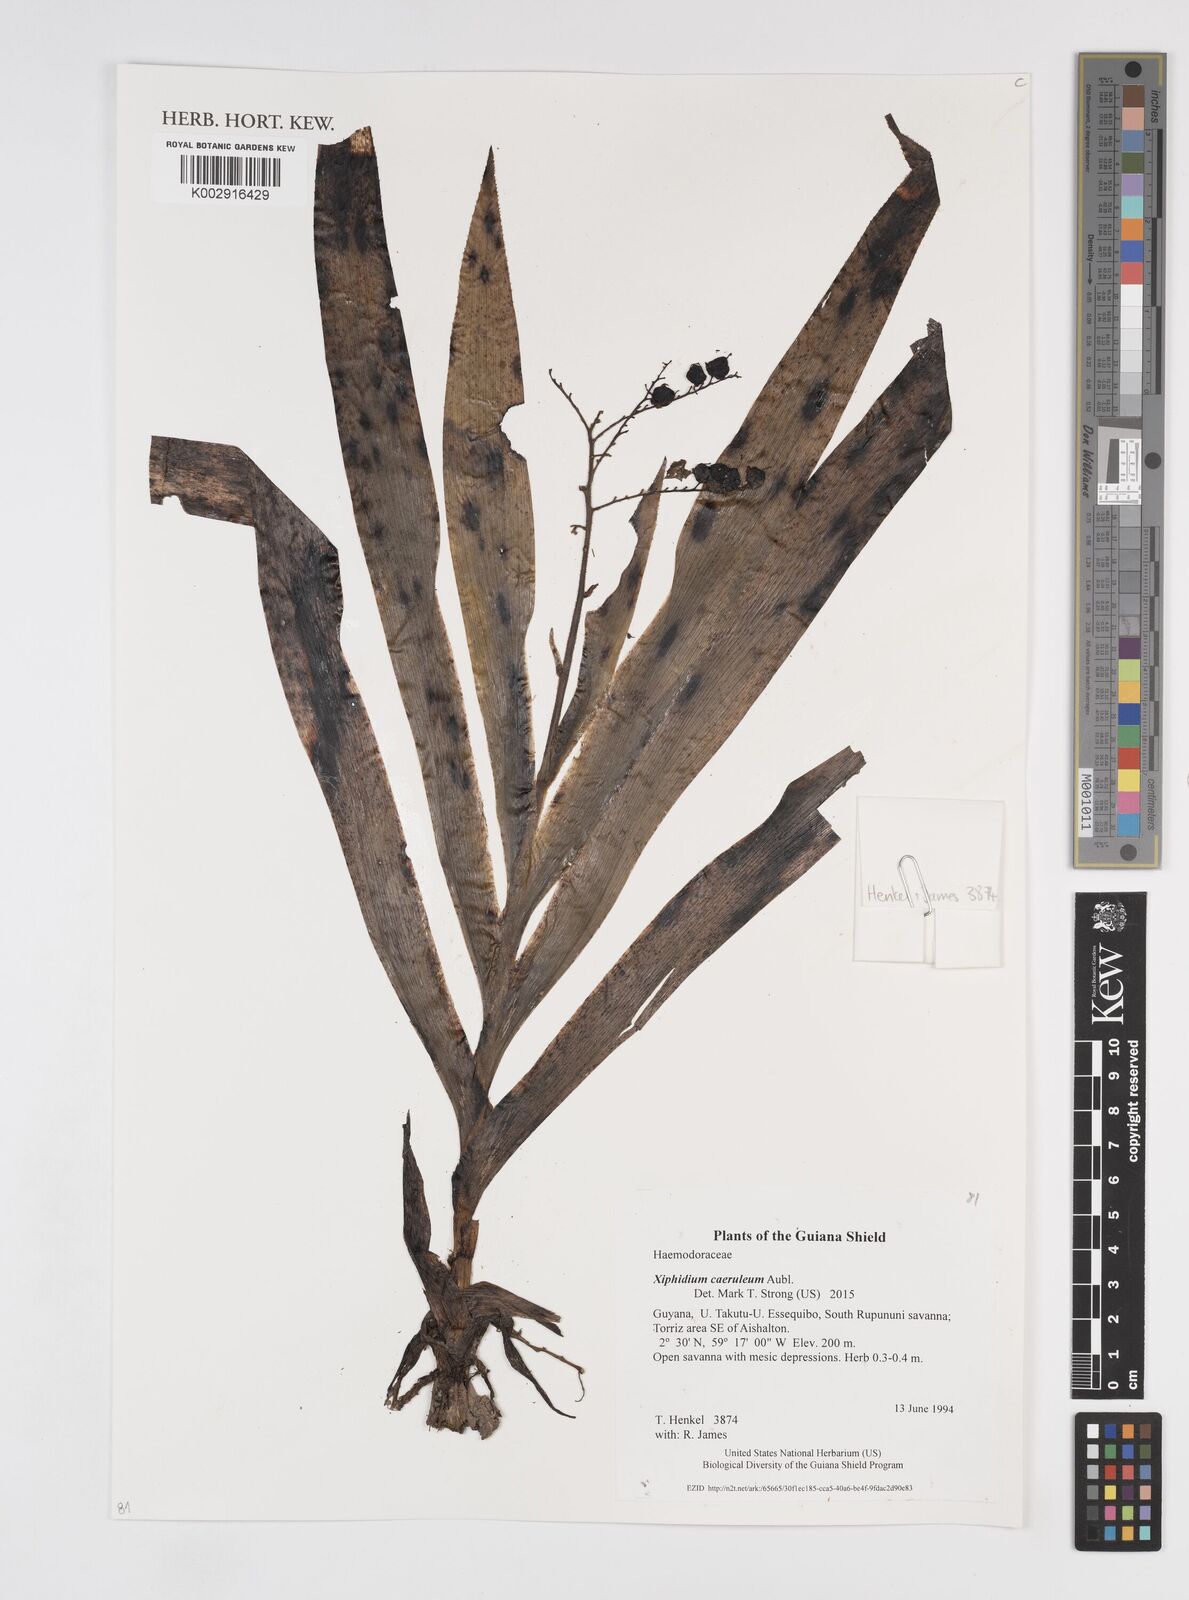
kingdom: Plantae
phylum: Tracheophyta
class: Liliopsida
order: Commelinales
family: Haemodoraceae
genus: Xiphidium
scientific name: Xiphidium caeruleum
